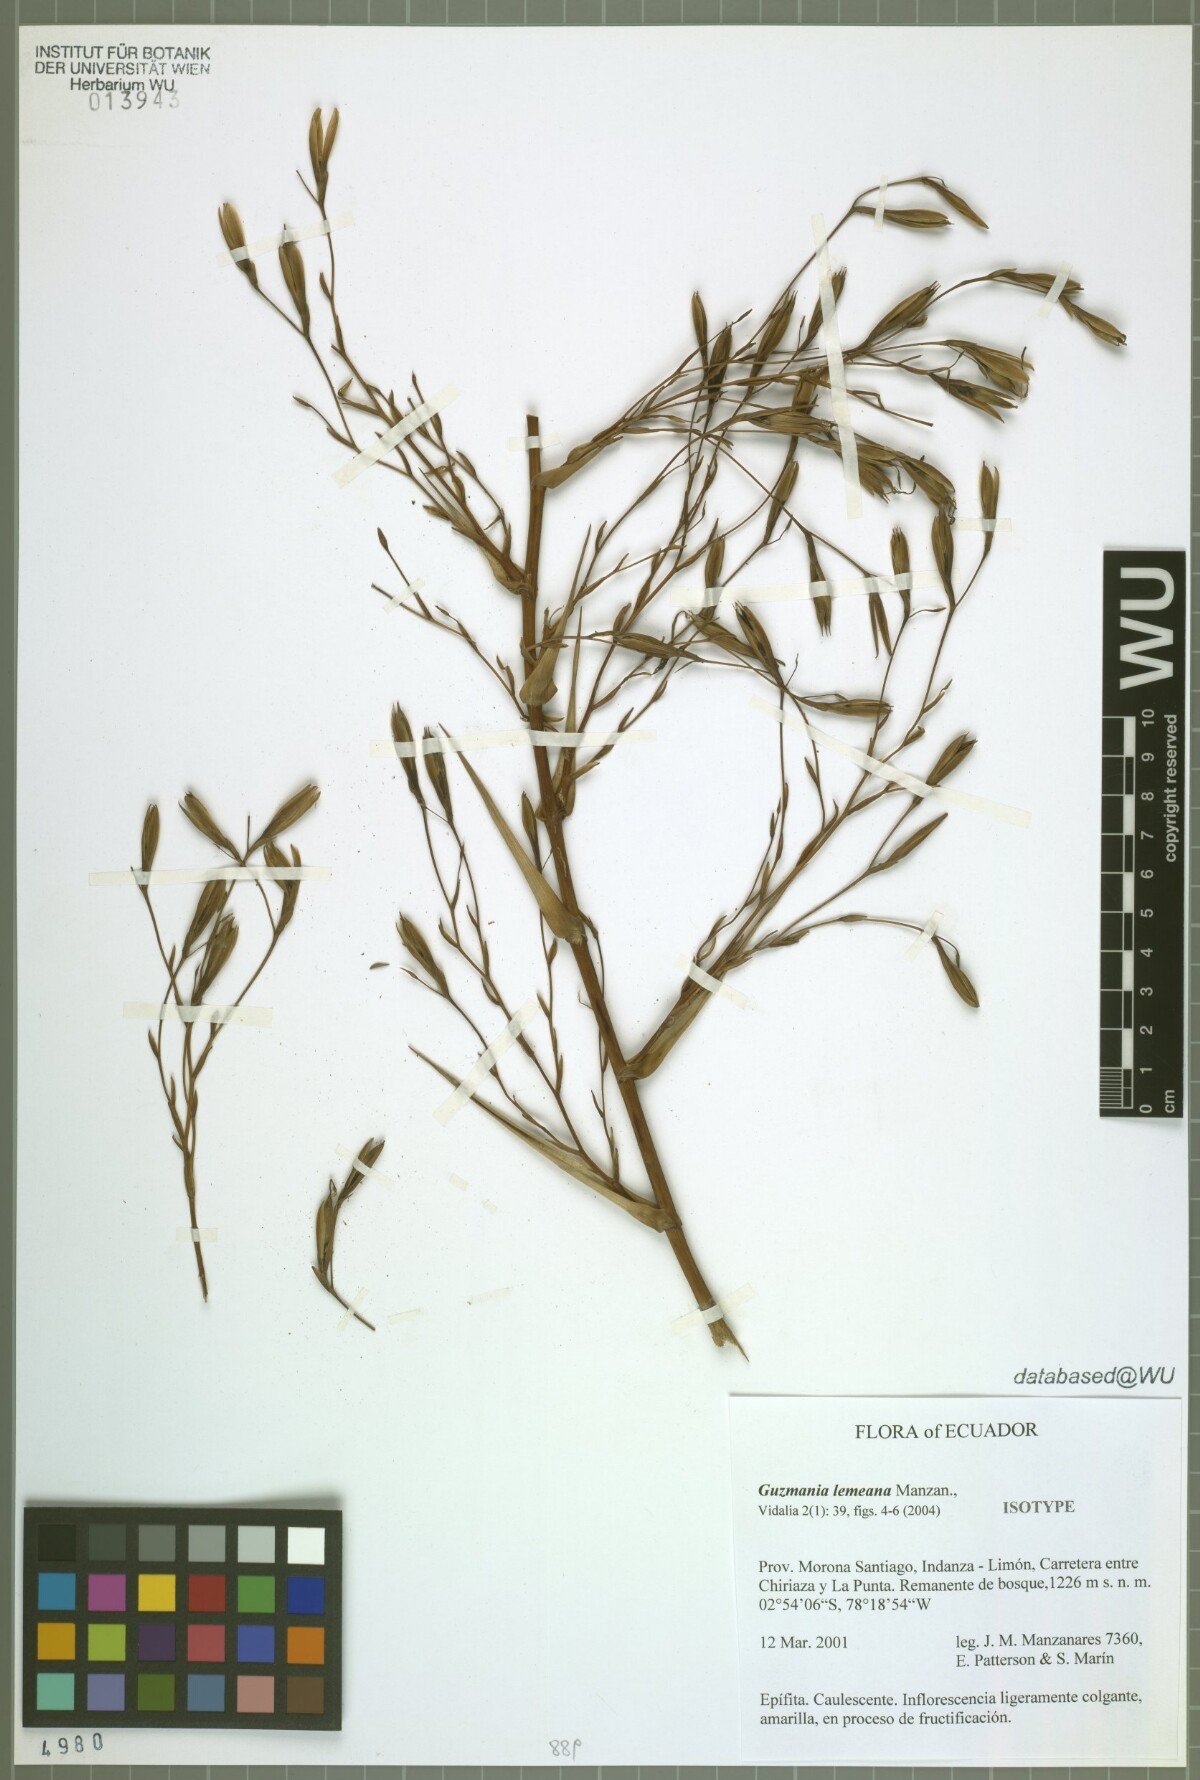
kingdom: Plantae
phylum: Tracheophyta
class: Liliopsida
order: Poales
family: Bromeliaceae
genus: Guzmania
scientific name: Guzmania lemeana
